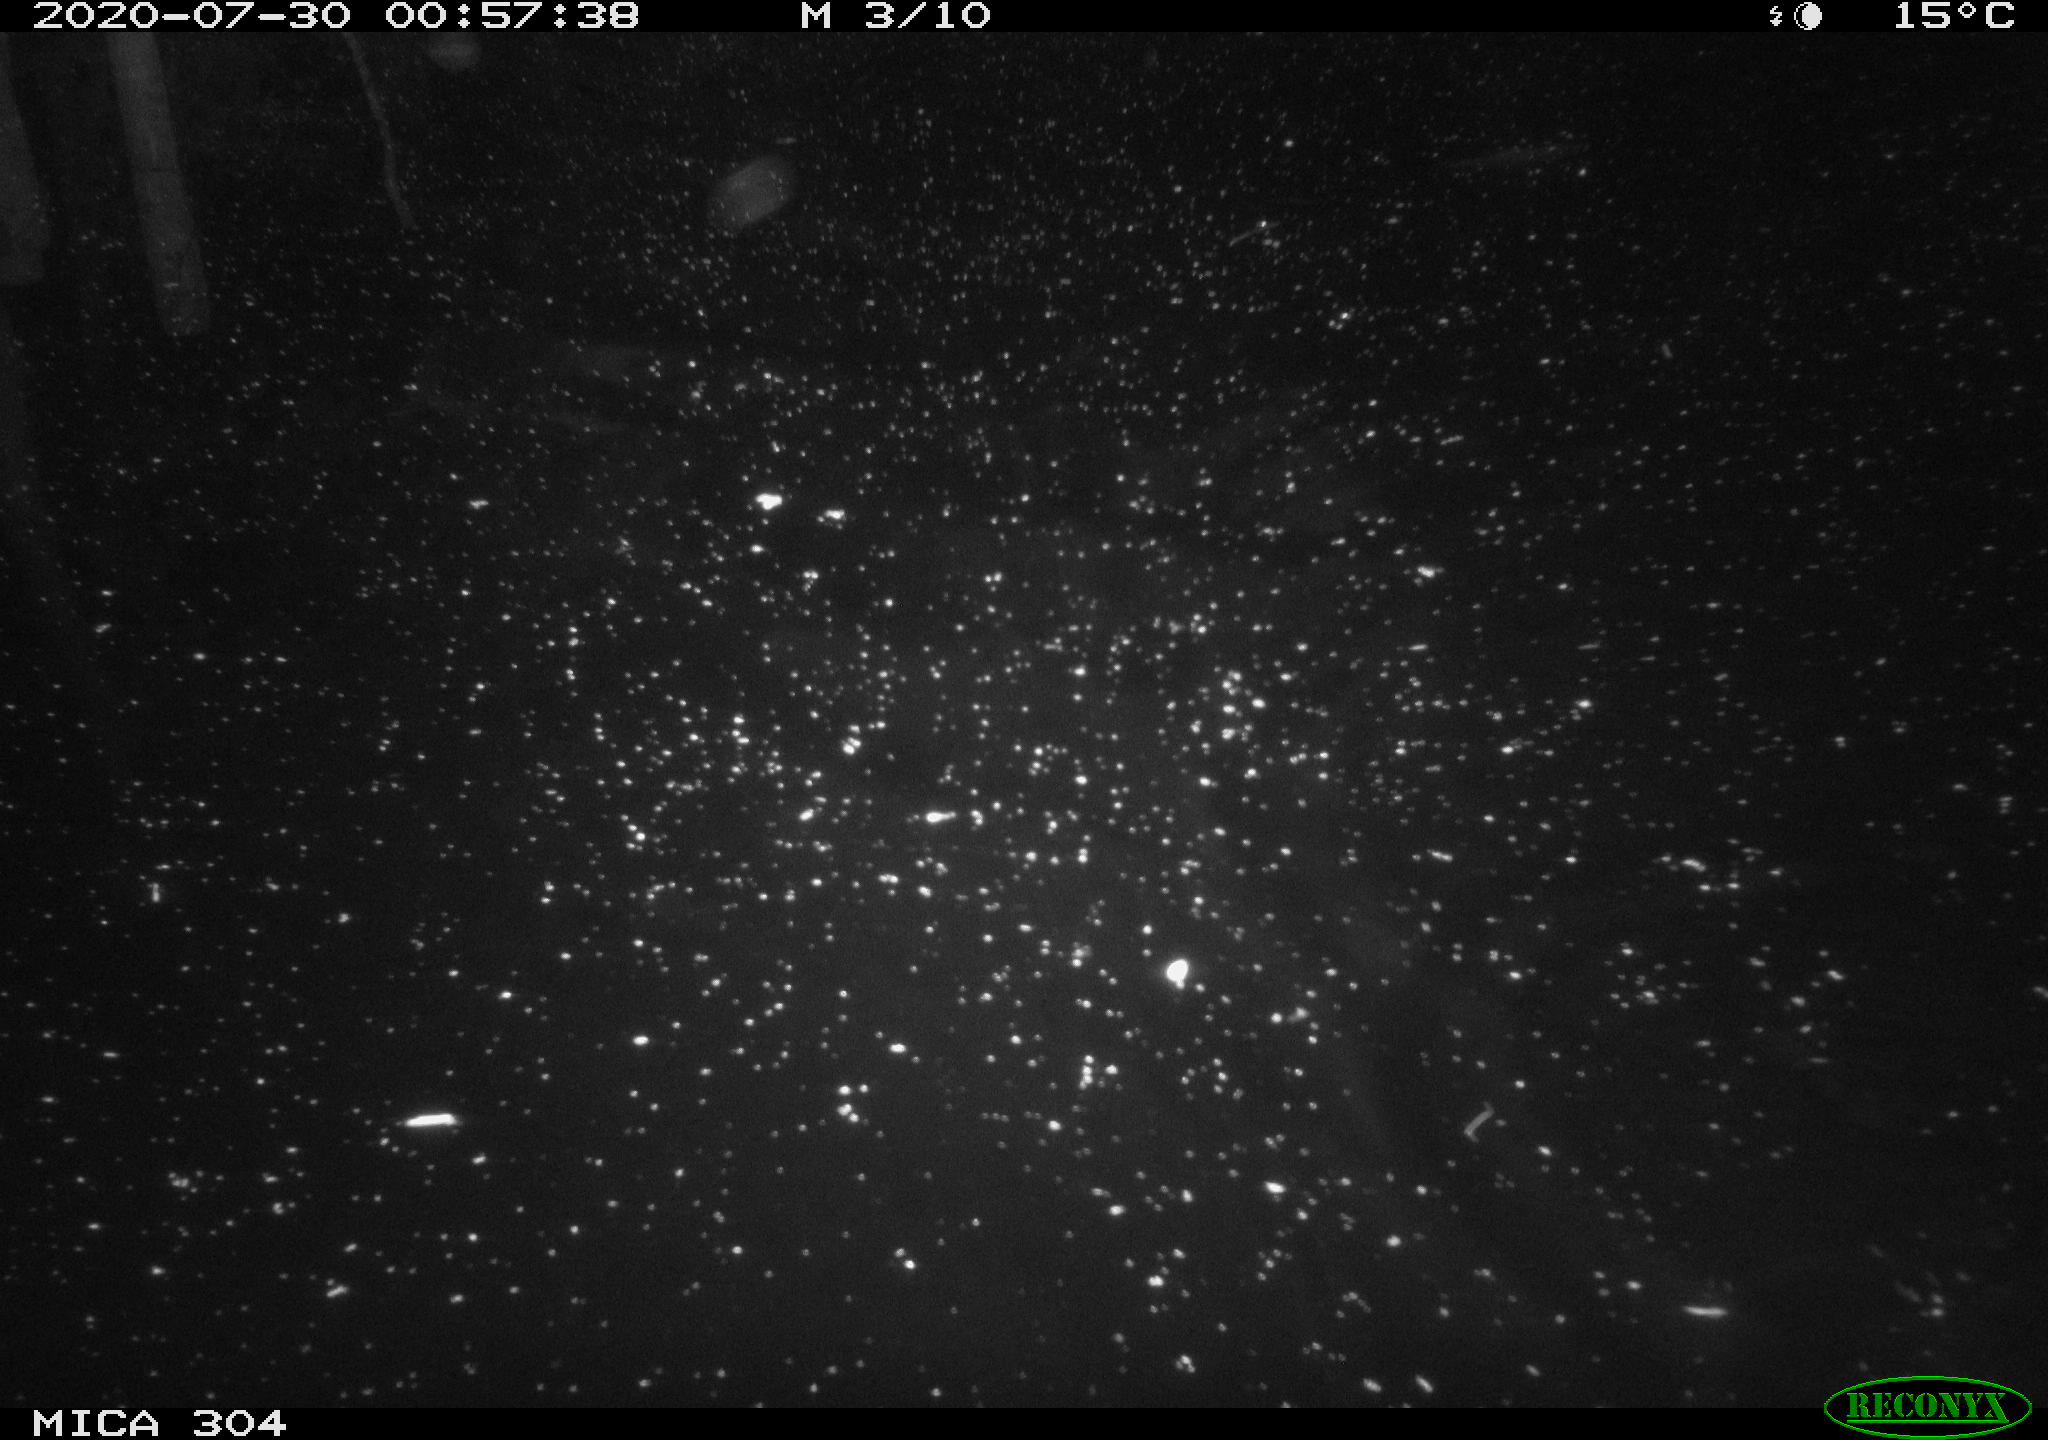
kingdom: Animalia
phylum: Chordata
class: Mammalia
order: Rodentia
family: Cricetidae
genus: Ondatra
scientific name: Ondatra zibethicus
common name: Muskrat
